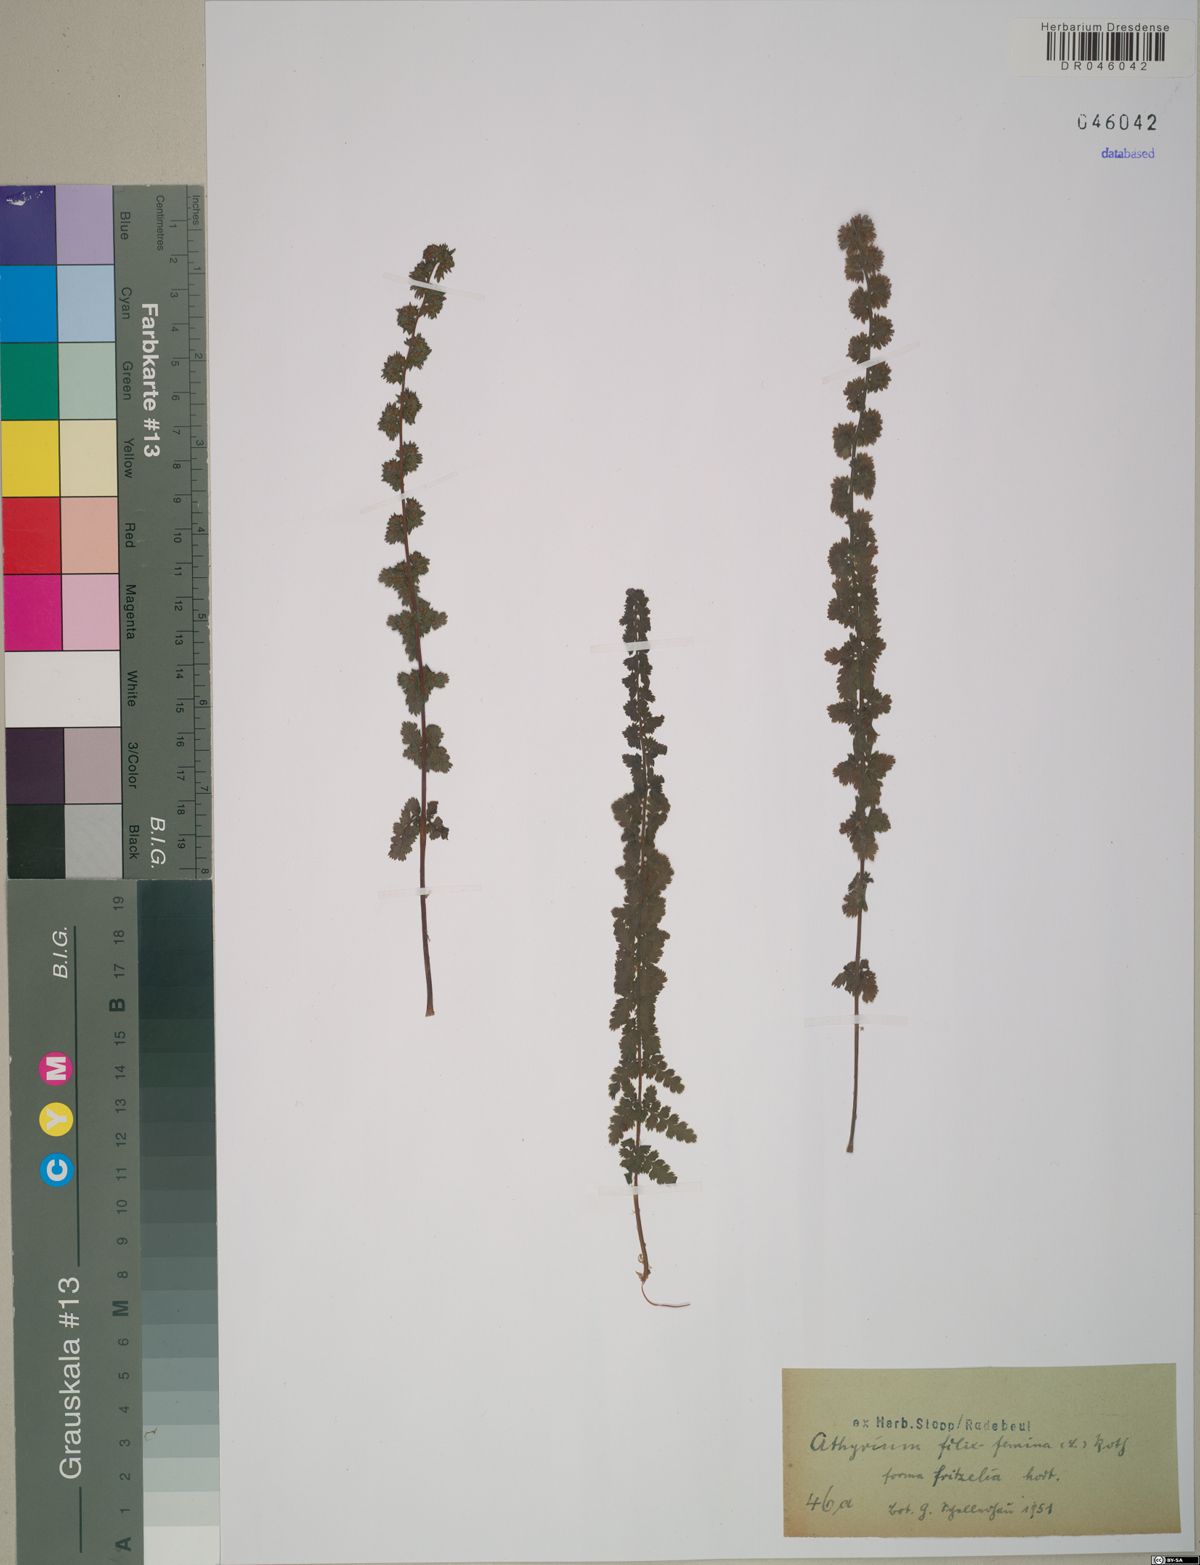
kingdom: Plantae
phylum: Tracheophyta
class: Polypodiopsida
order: Polypodiales
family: Athyriaceae
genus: Athyrium
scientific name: Athyrium filix-femina
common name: Lady fern
